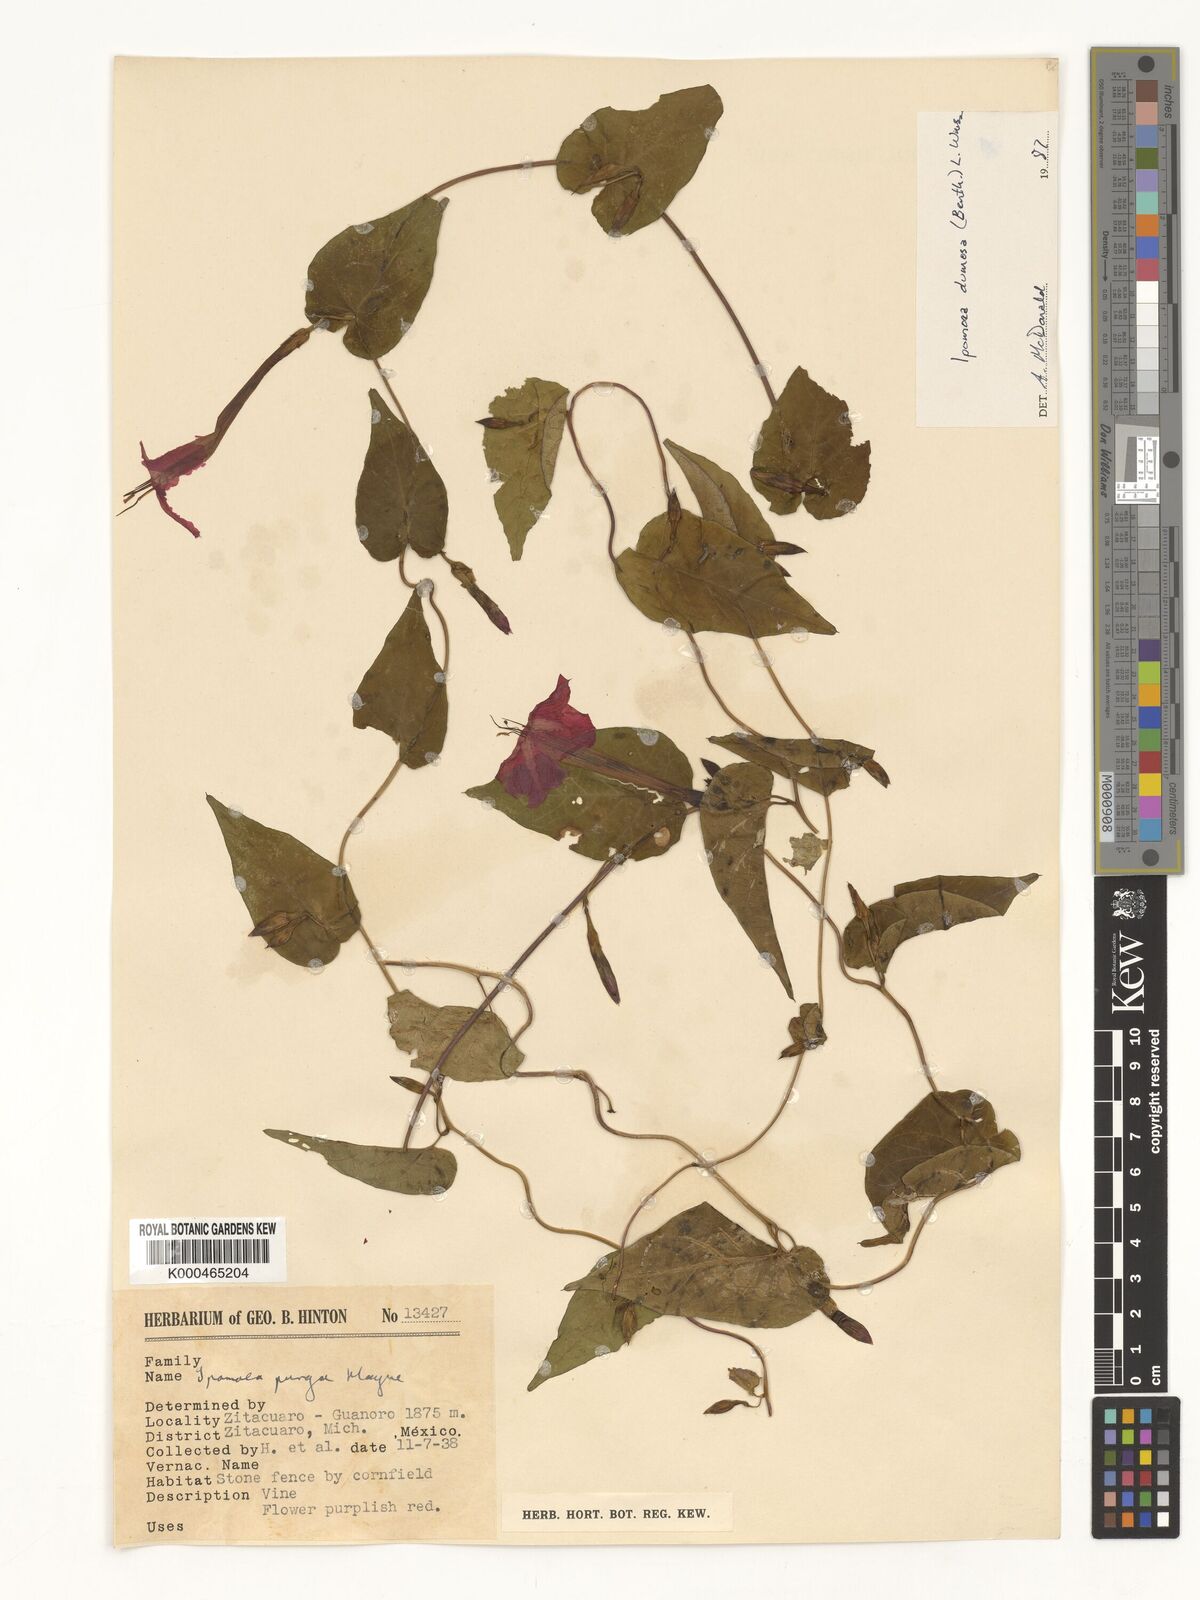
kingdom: Plantae
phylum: Tracheophyta
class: Magnoliopsida
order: Solanales
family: Convolvulaceae
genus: Ipomoea
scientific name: Ipomoea dumosa
